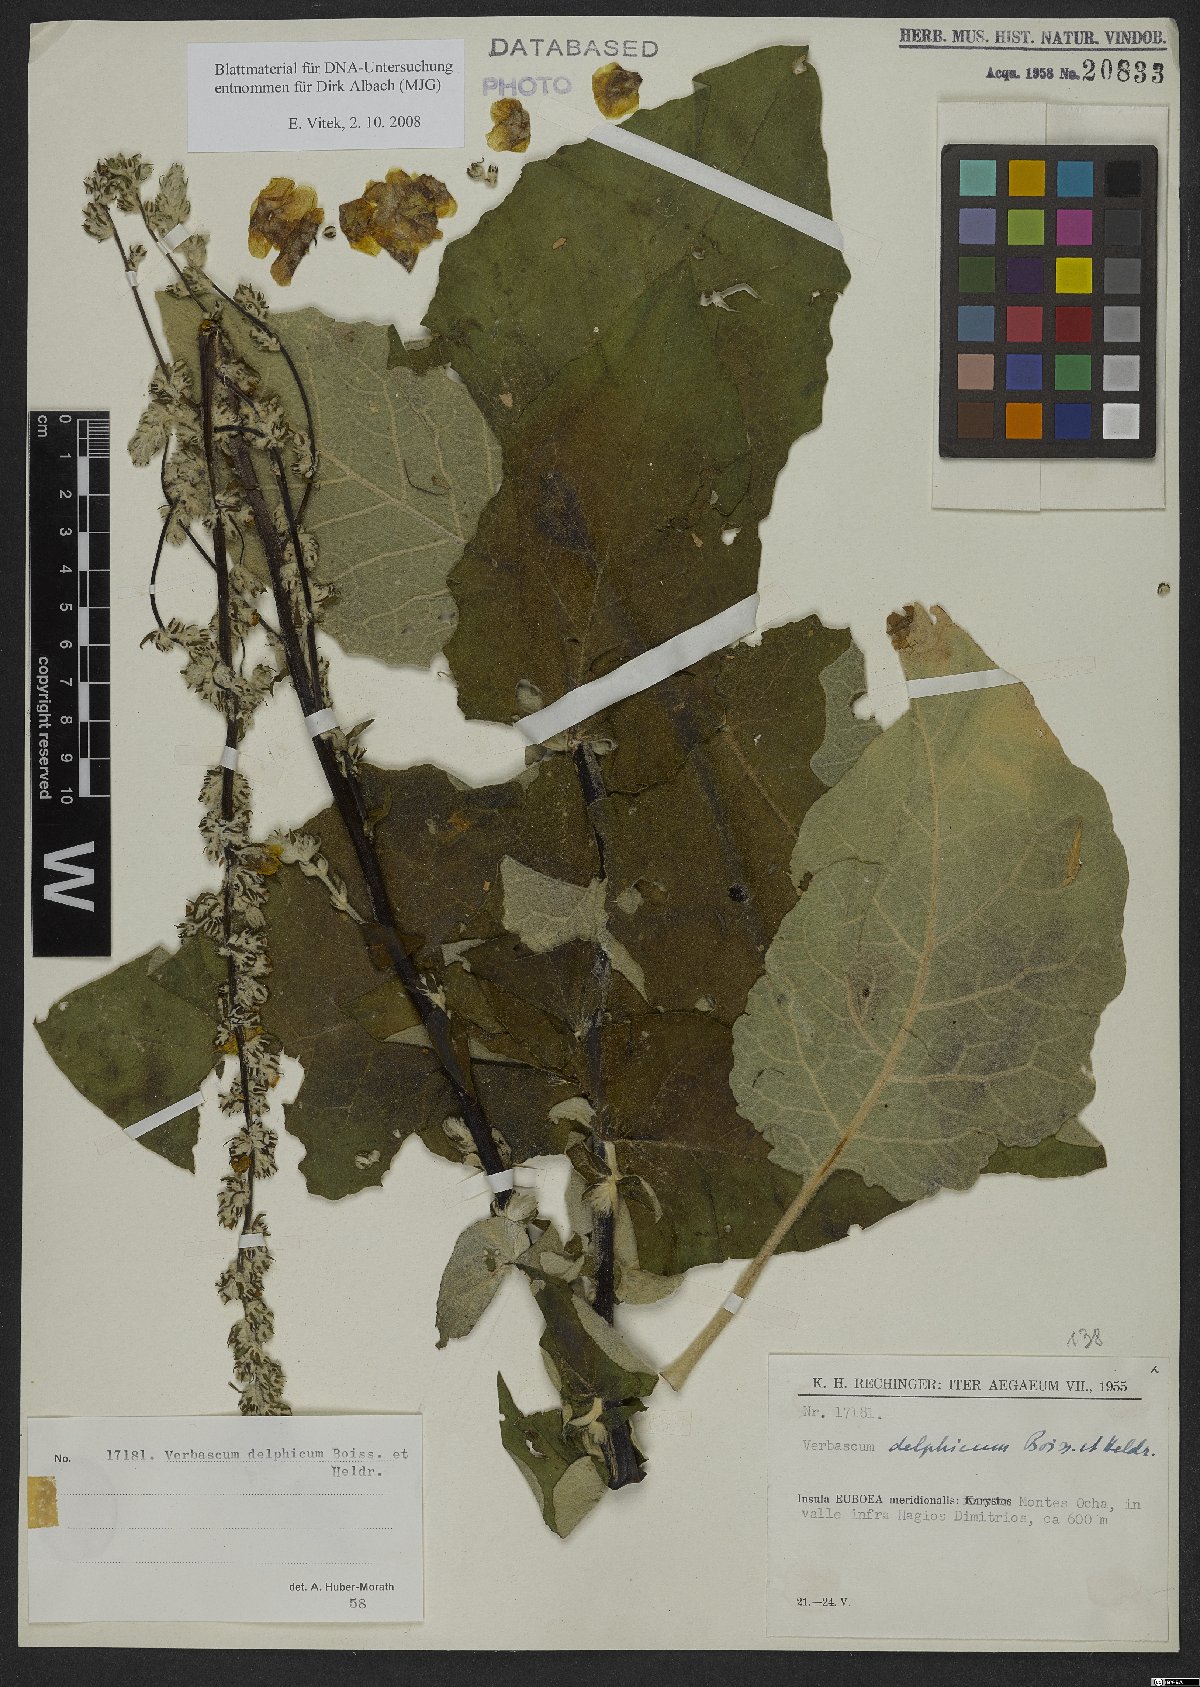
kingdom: Plantae
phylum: Tracheophyta
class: Magnoliopsida
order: Lamiales
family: Scrophulariaceae
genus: Verbascum
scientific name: Verbascum delphicum
